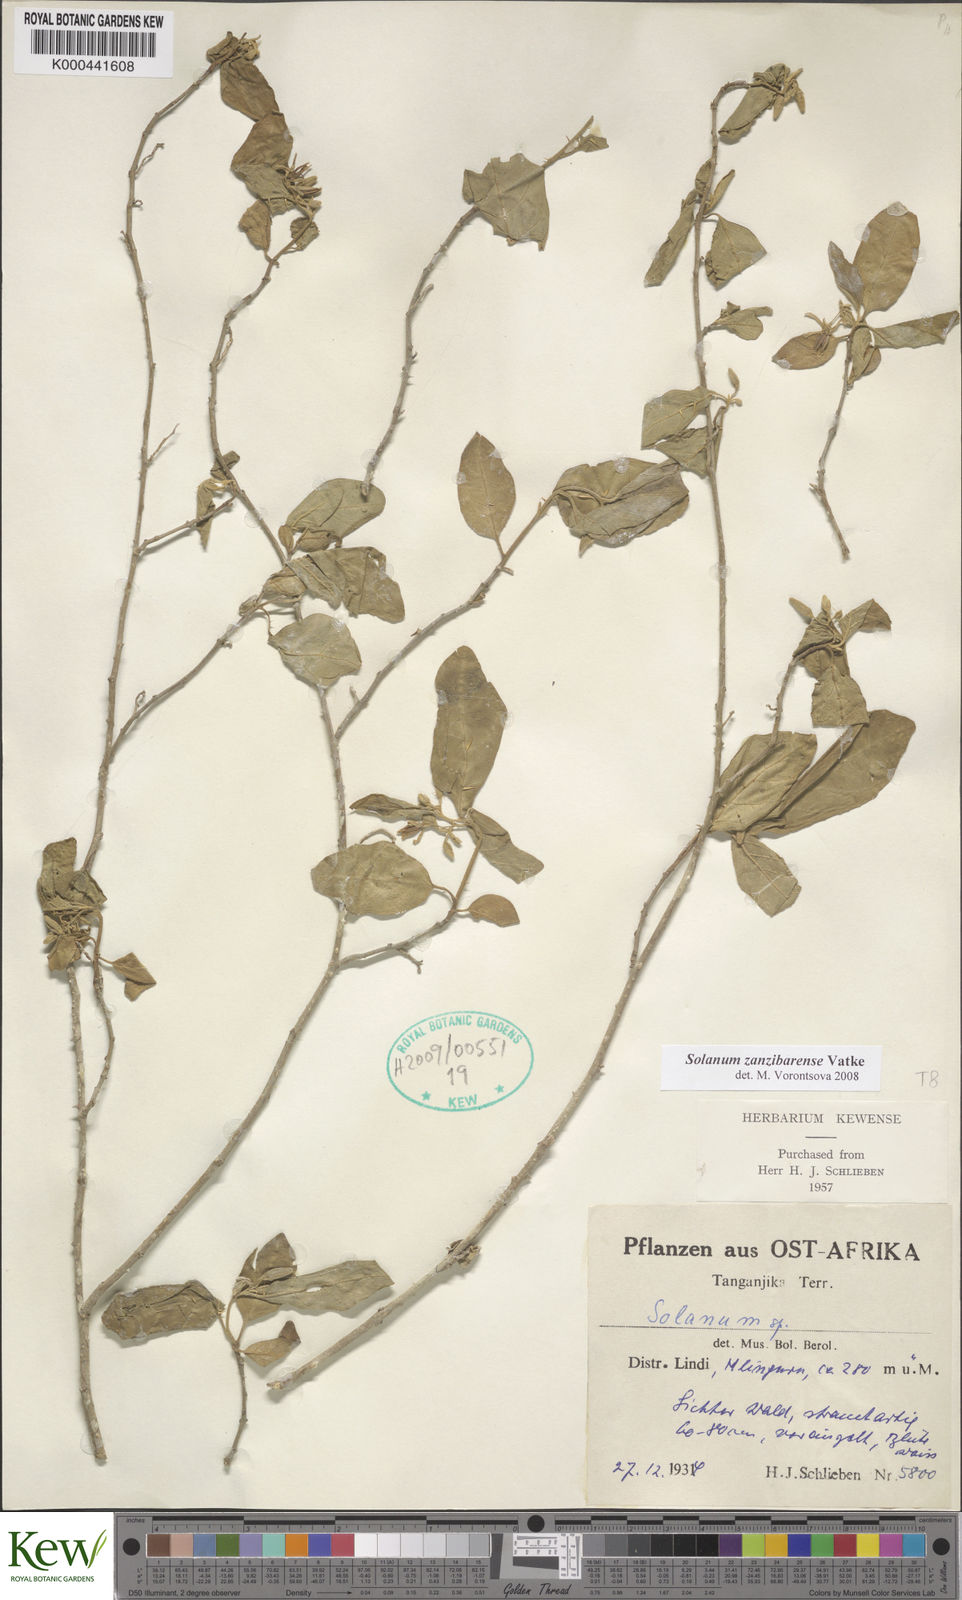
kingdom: Plantae
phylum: Tracheophyta
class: Magnoliopsida
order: Solanales
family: Solanaceae
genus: Solanum
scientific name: Solanum zanzibarense
